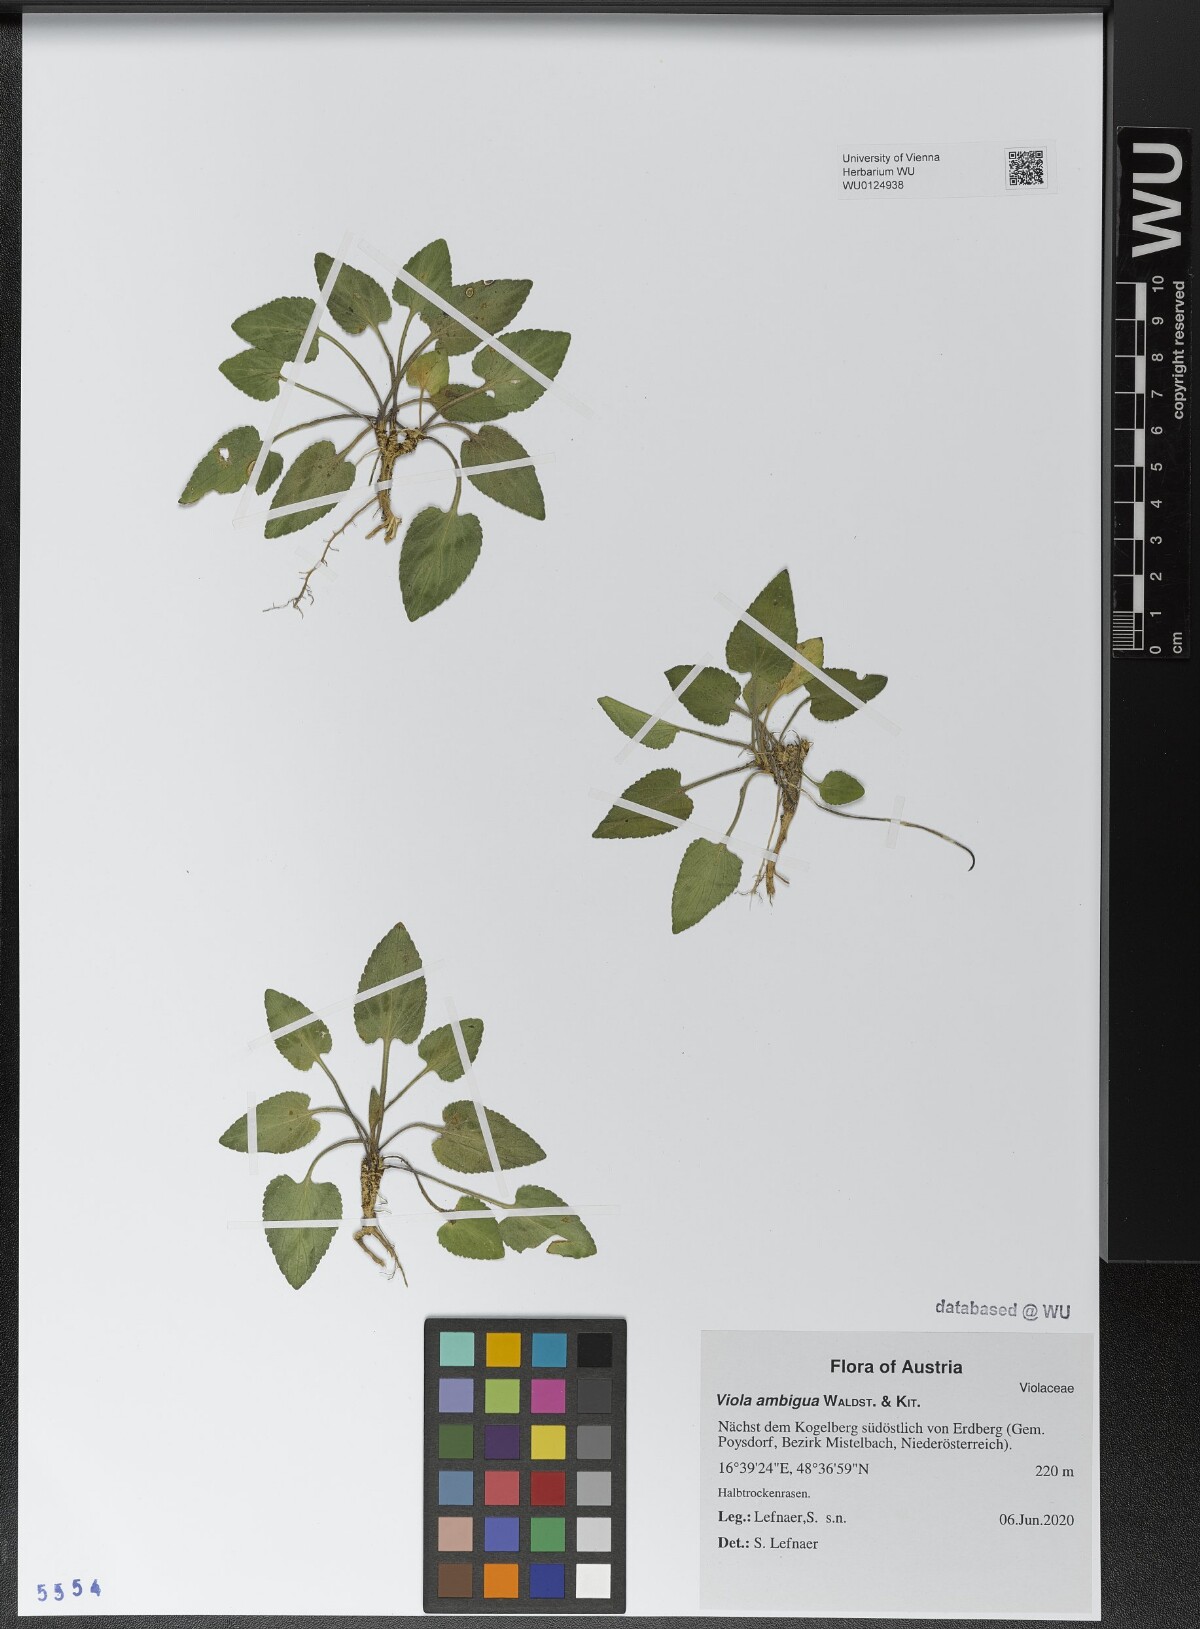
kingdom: Plantae
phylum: Tracheophyta
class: Magnoliopsida
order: Malpighiales
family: Violaceae
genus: Viola
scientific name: Viola ambigua
